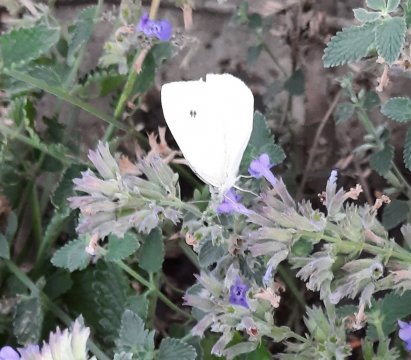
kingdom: Animalia
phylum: Arthropoda
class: Insecta
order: Lepidoptera
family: Pieridae
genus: Pieris
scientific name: Pieris rapae
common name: Cabbage White
